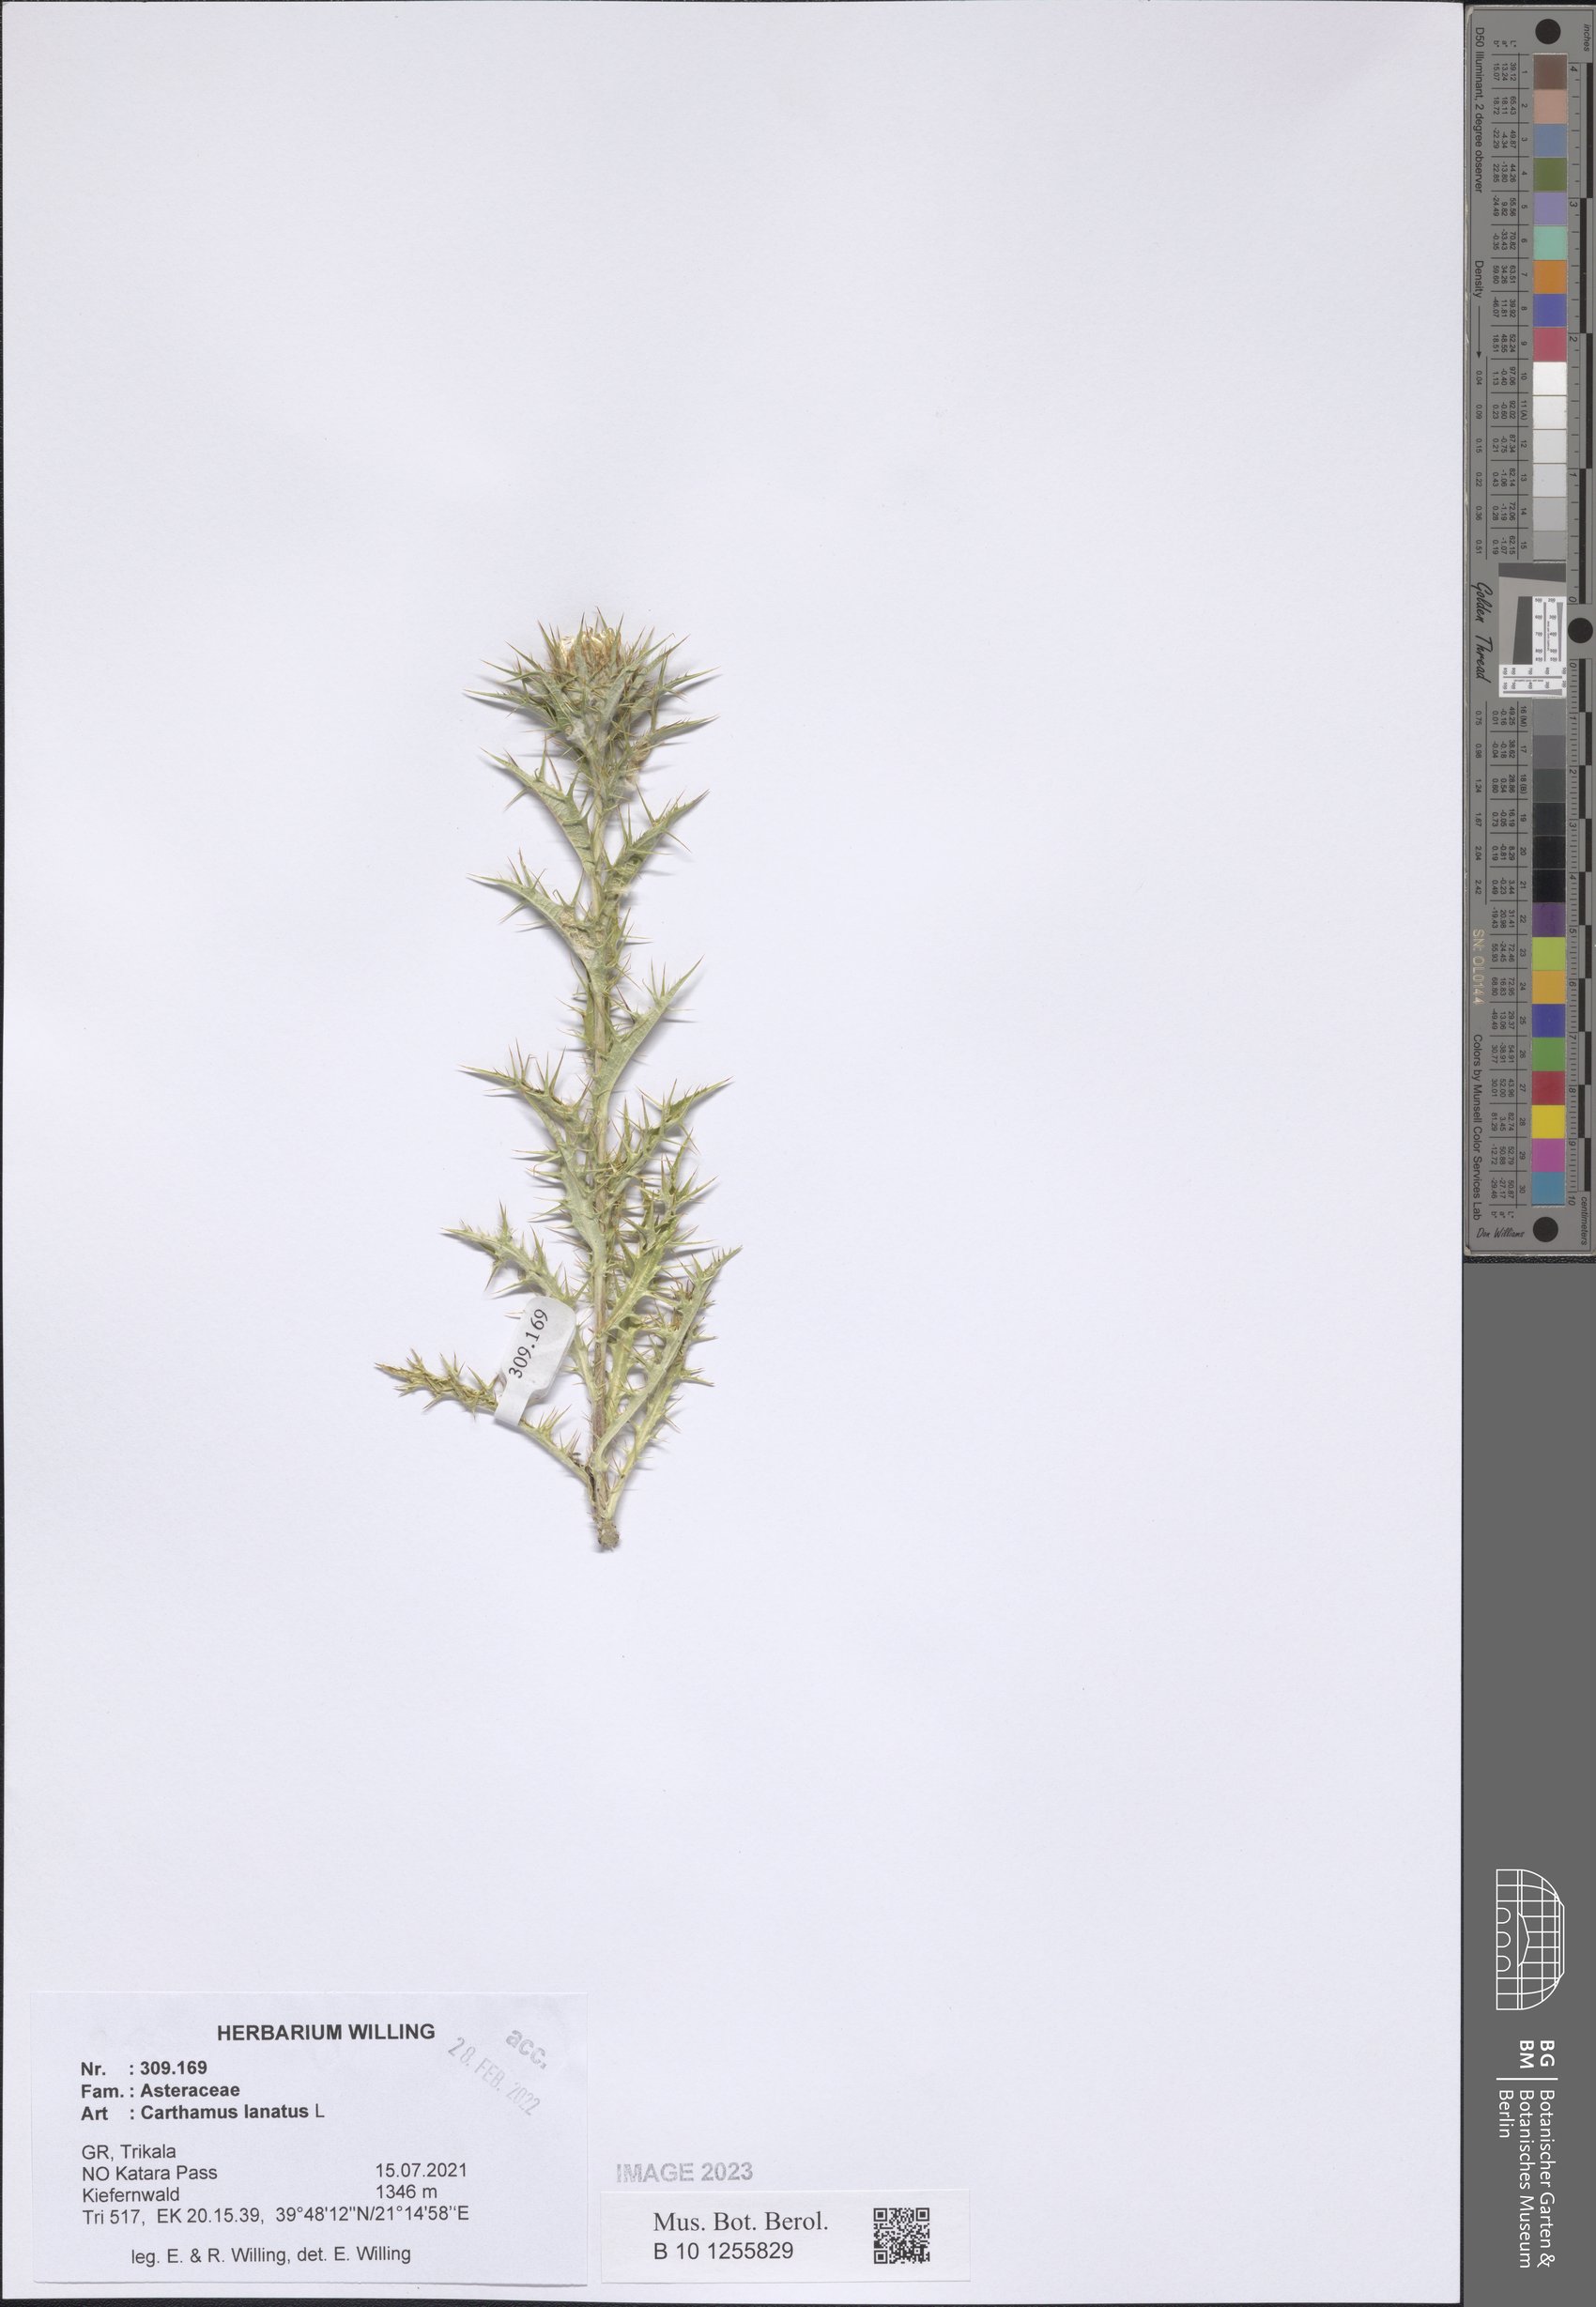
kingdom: Plantae
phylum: Tracheophyta
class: Magnoliopsida
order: Asterales
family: Asteraceae
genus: Carthamus
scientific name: Carthamus lanatus
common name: Downy safflower
